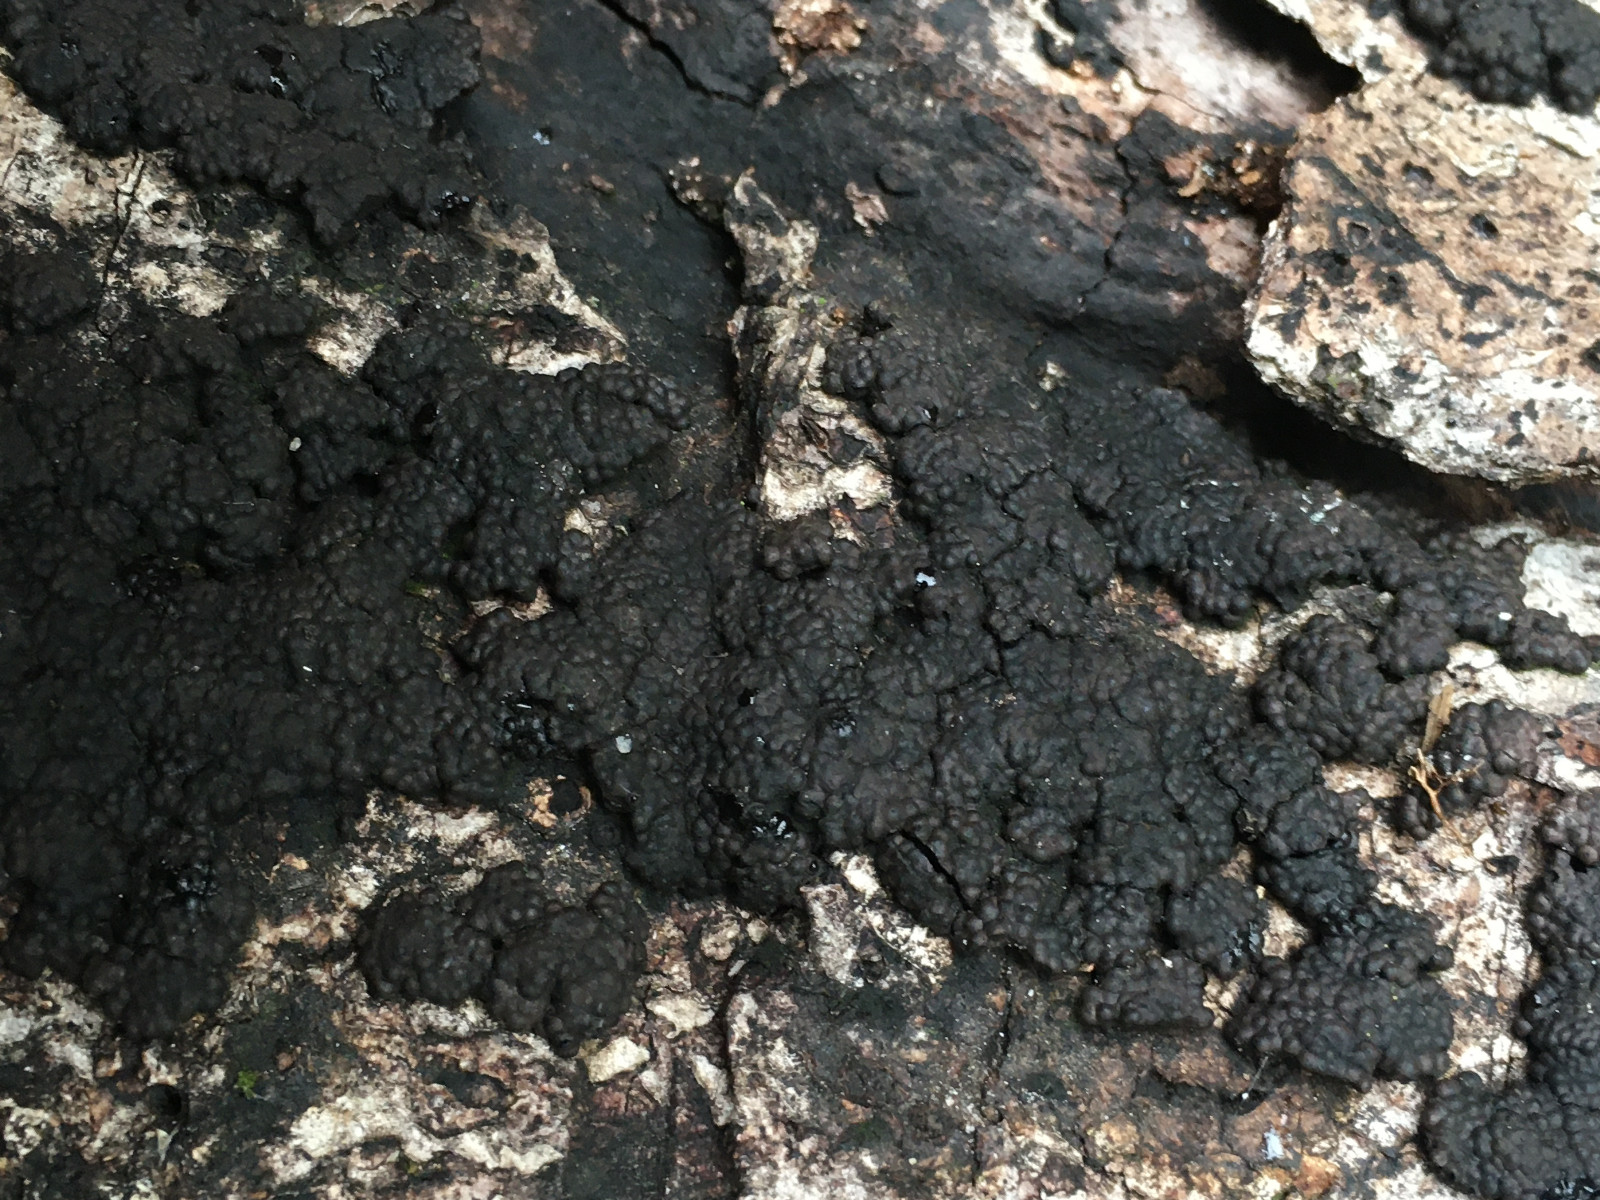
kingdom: Fungi
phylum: Ascomycota
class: Sordariomycetes
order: Xylariales
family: Hypoxylaceae
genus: Jackrogersella
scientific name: Jackrogersella cohaerens
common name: sammenflydende kulbær
